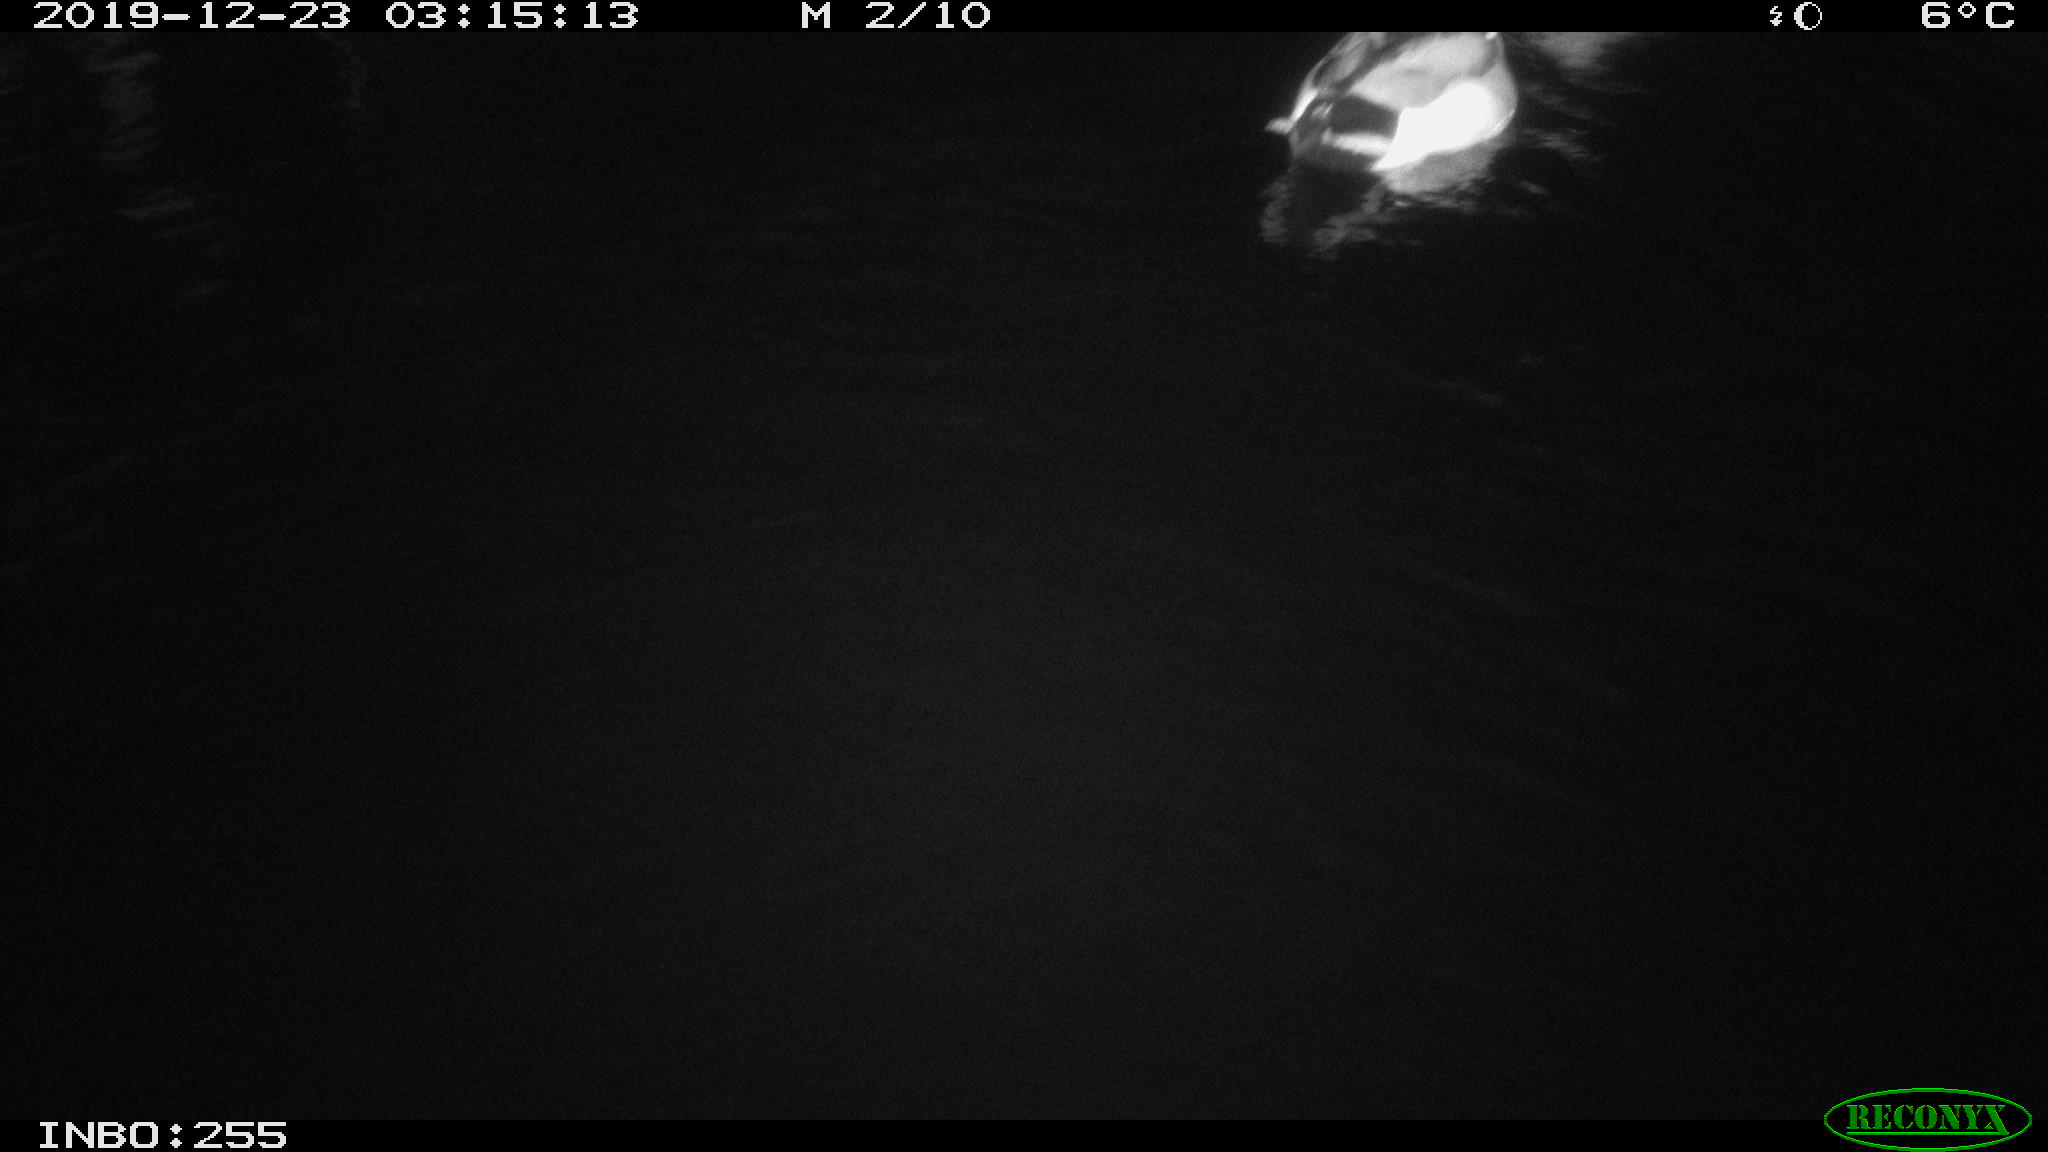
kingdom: Animalia
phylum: Chordata
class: Aves
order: Anseriformes
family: Anatidae
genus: Anas
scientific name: Anas platyrhynchos
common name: Mallard
